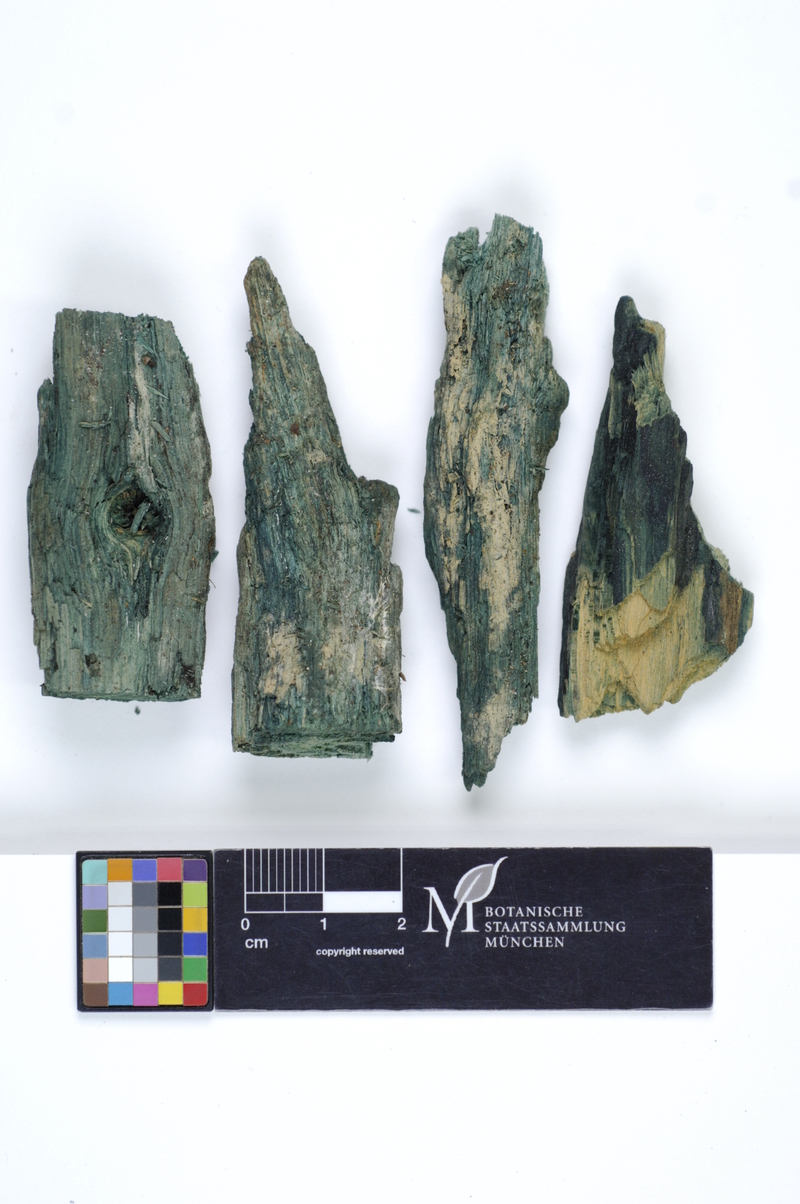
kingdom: Plantae
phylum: Tracheophyta
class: Magnoliopsida
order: Fagales
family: Fagaceae
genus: Quercus
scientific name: Quercus
